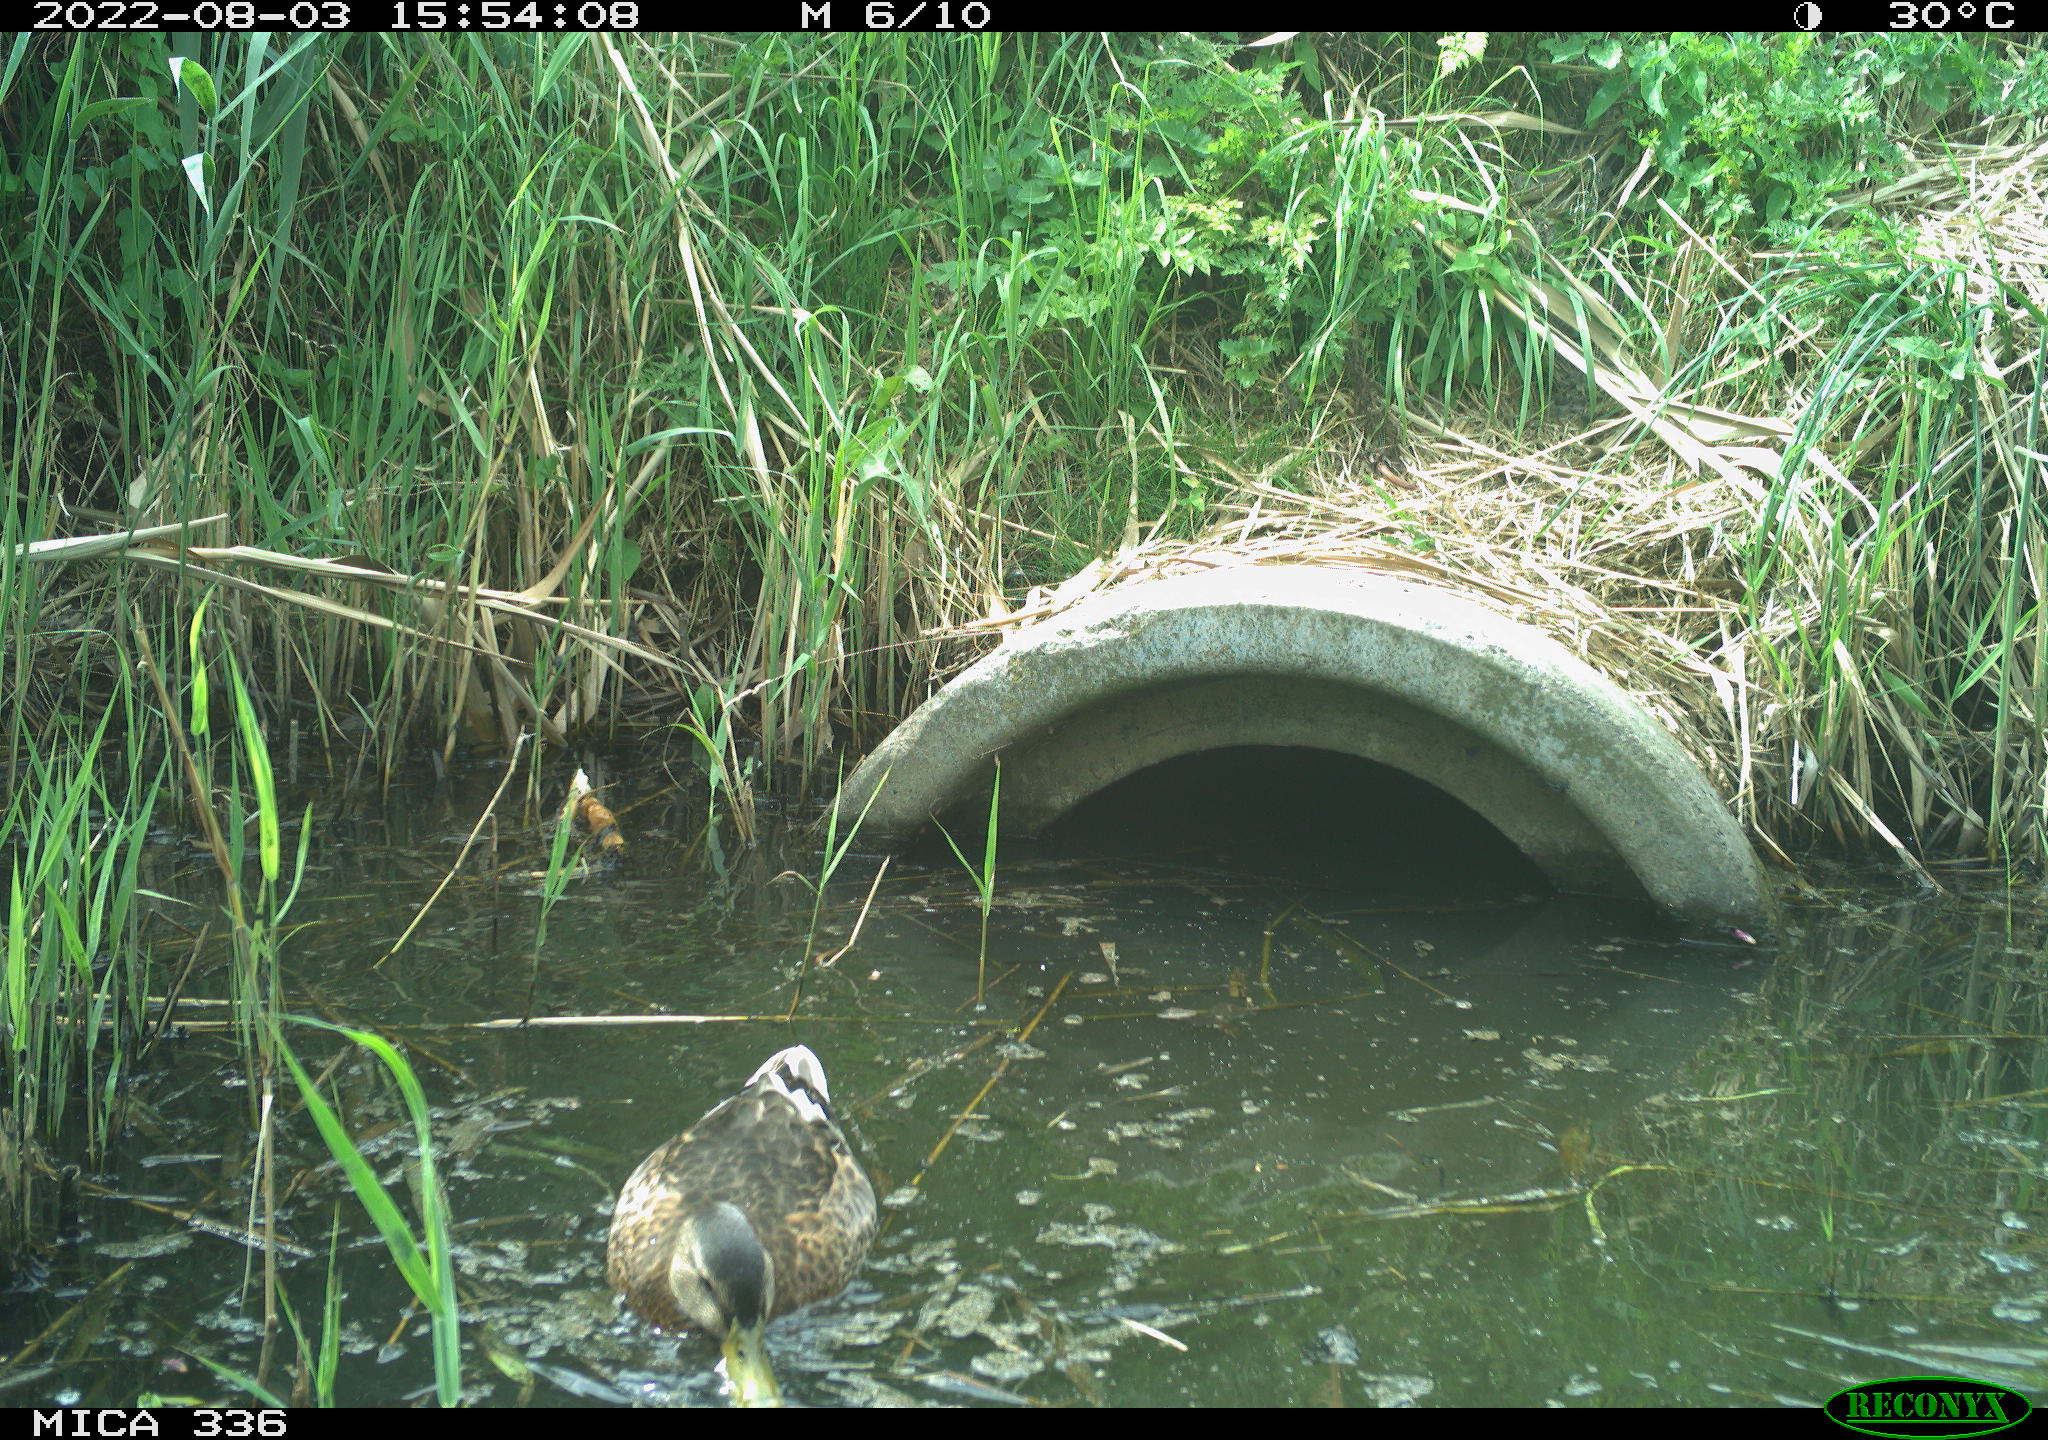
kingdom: Animalia
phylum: Chordata
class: Aves
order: Anseriformes
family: Anatidae
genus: Mareca
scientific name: Mareca strepera
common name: Gadwall
